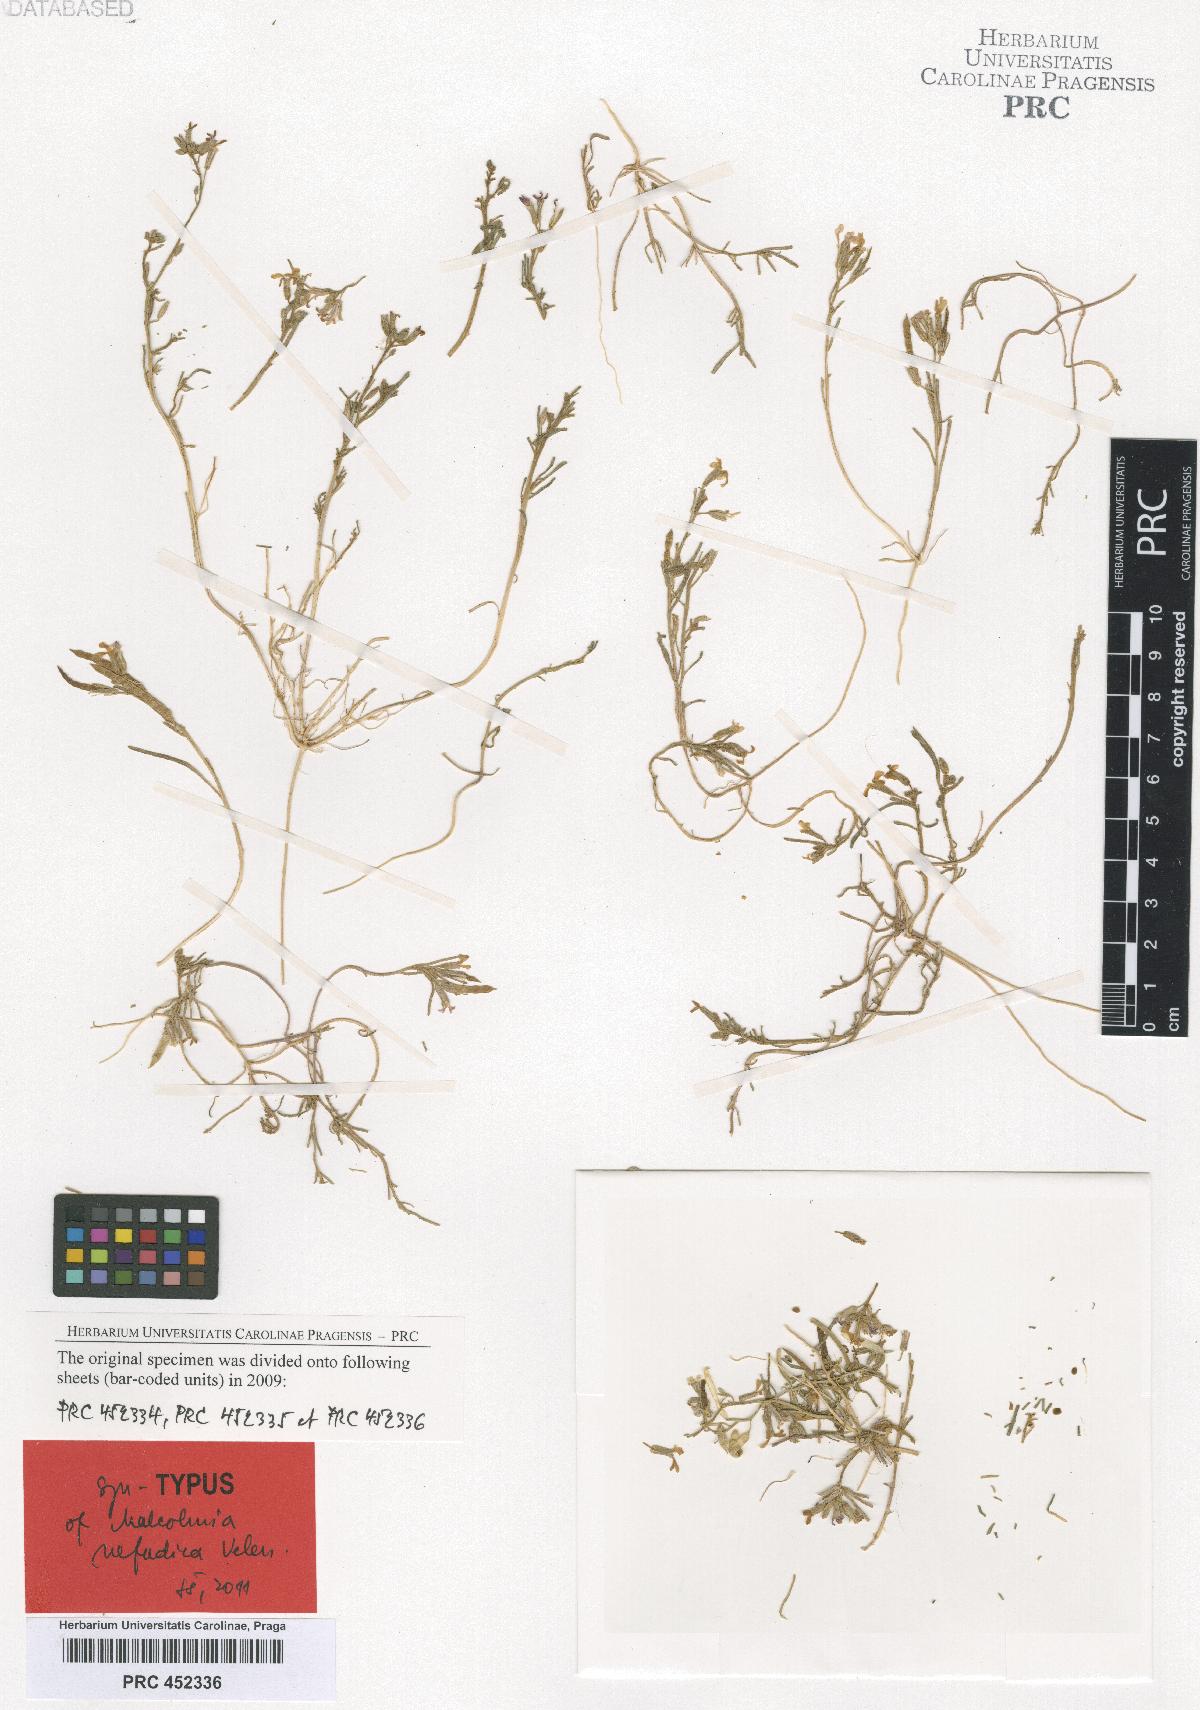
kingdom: Plantae
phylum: Tracheophyta
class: Magnoliopsida
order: Brassicales
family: Brassicaceae
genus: Eremobium
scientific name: Eremobium aegyptiacum
